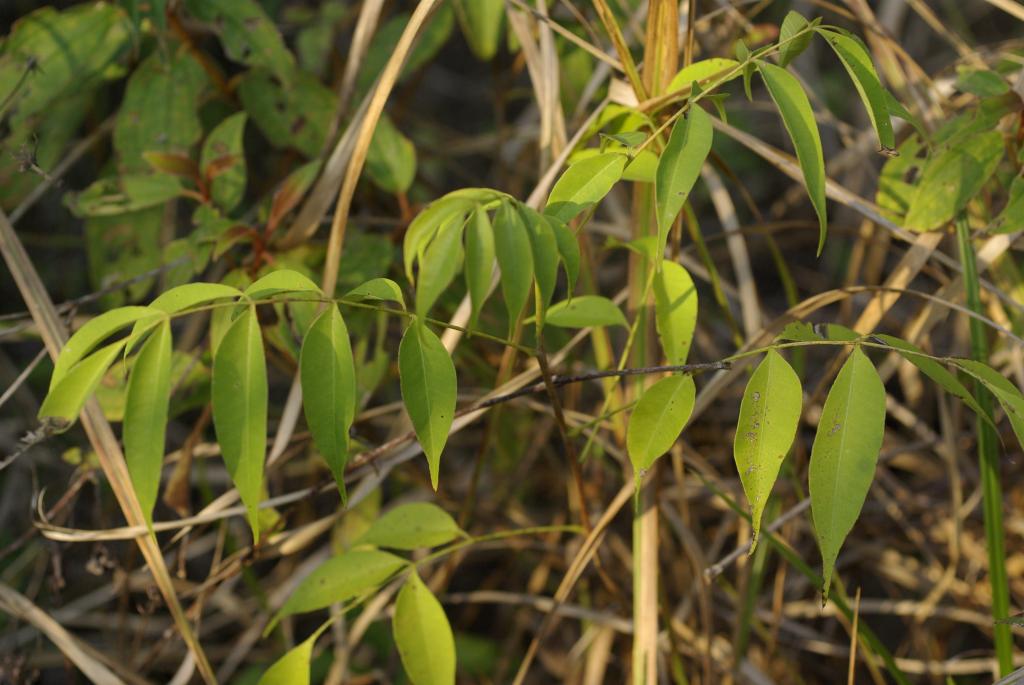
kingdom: Plantae
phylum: Tracheophyta
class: Magnoliopsida
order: Sapindales
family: Anacardiaceae
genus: Toxicodendron
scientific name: Toxicodendron succedaneum
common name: Wax tree
